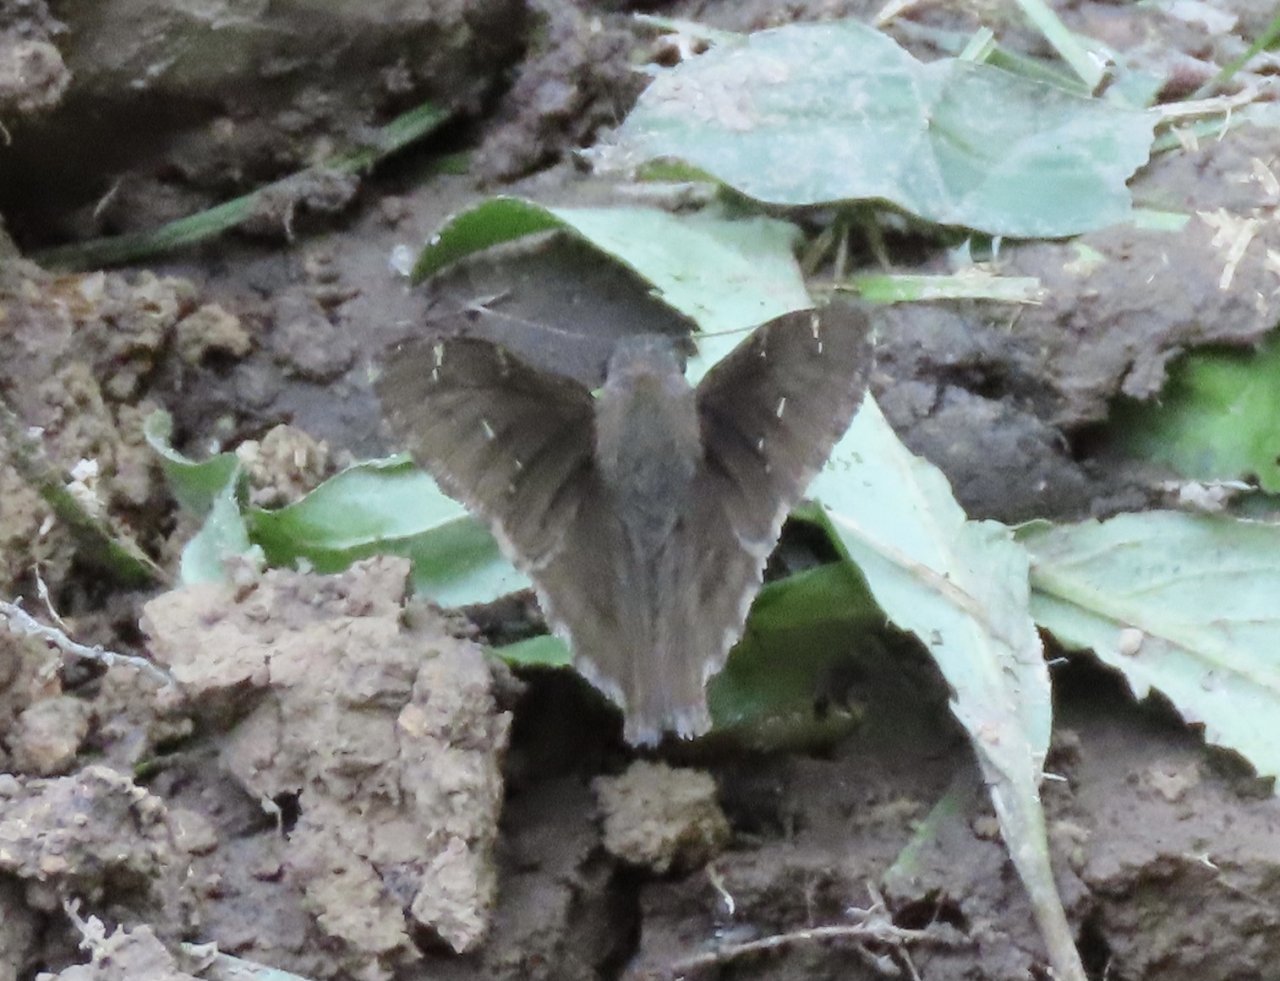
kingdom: Animalia
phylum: Arthropoda
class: Insecta
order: Lepidoptera
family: Hesperiidae
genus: Autochton
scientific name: Autochton
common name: Northern Cloudywing
